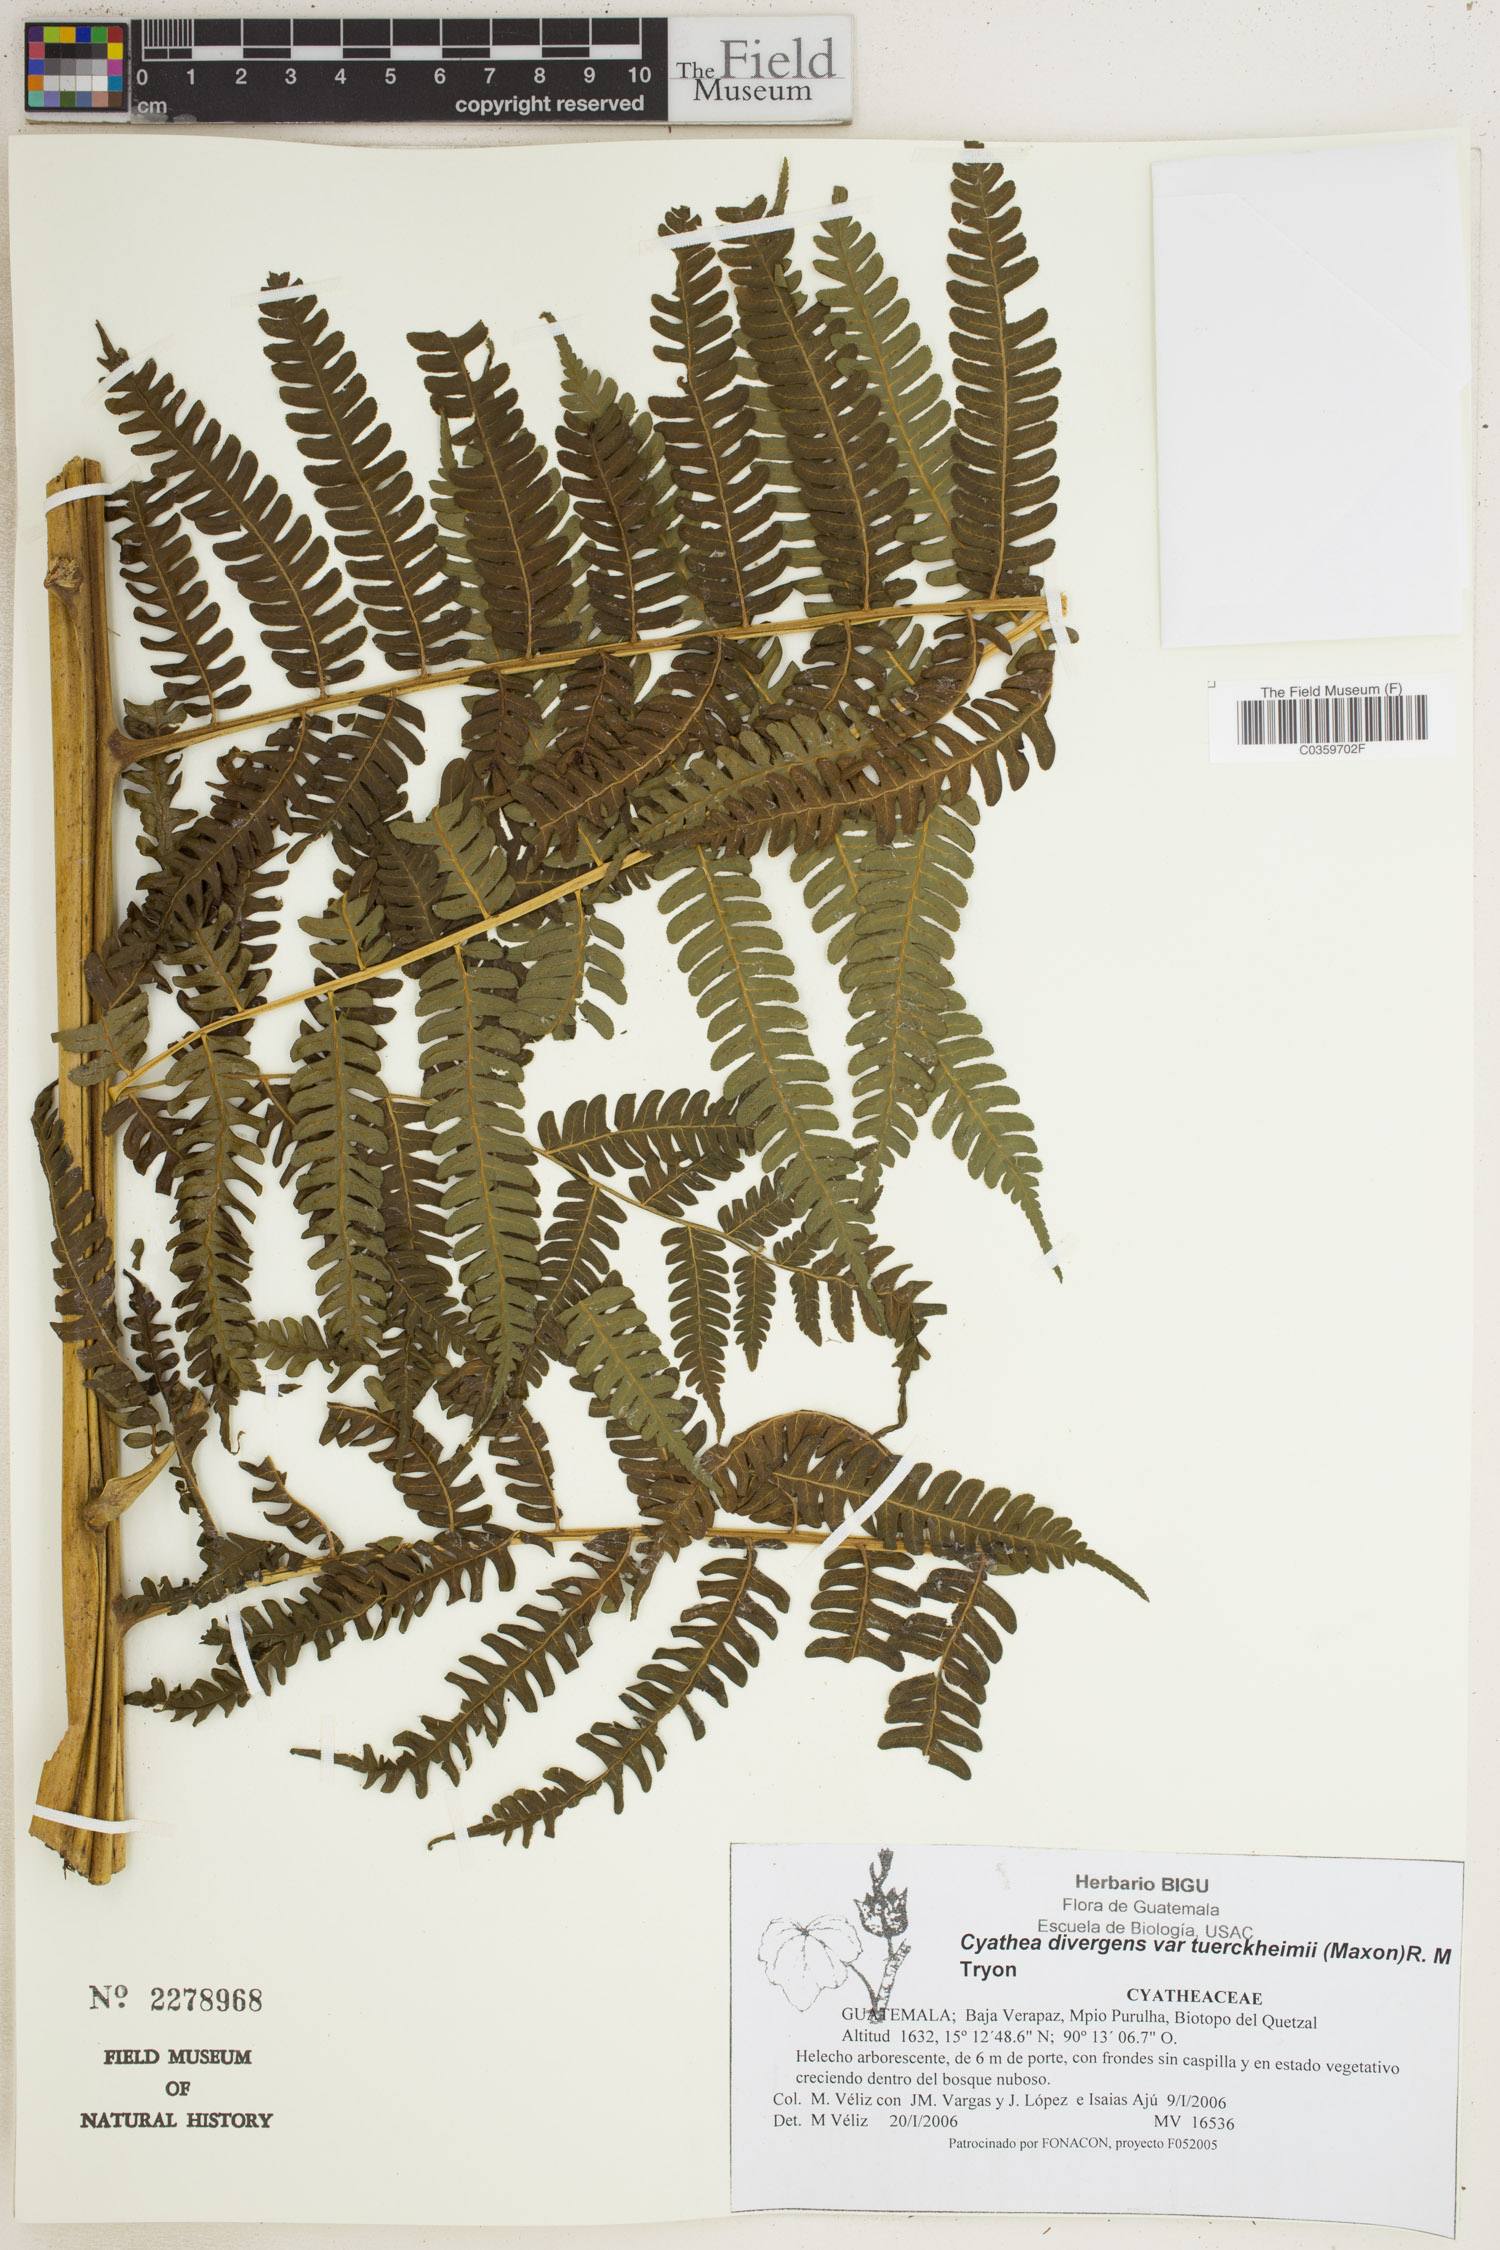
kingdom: Plantae
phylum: Tracheophyta
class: Polypodiopsida
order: Cyatheales
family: Cyatheaceae
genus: Cyathea
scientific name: Cyathea tuerckheimii
